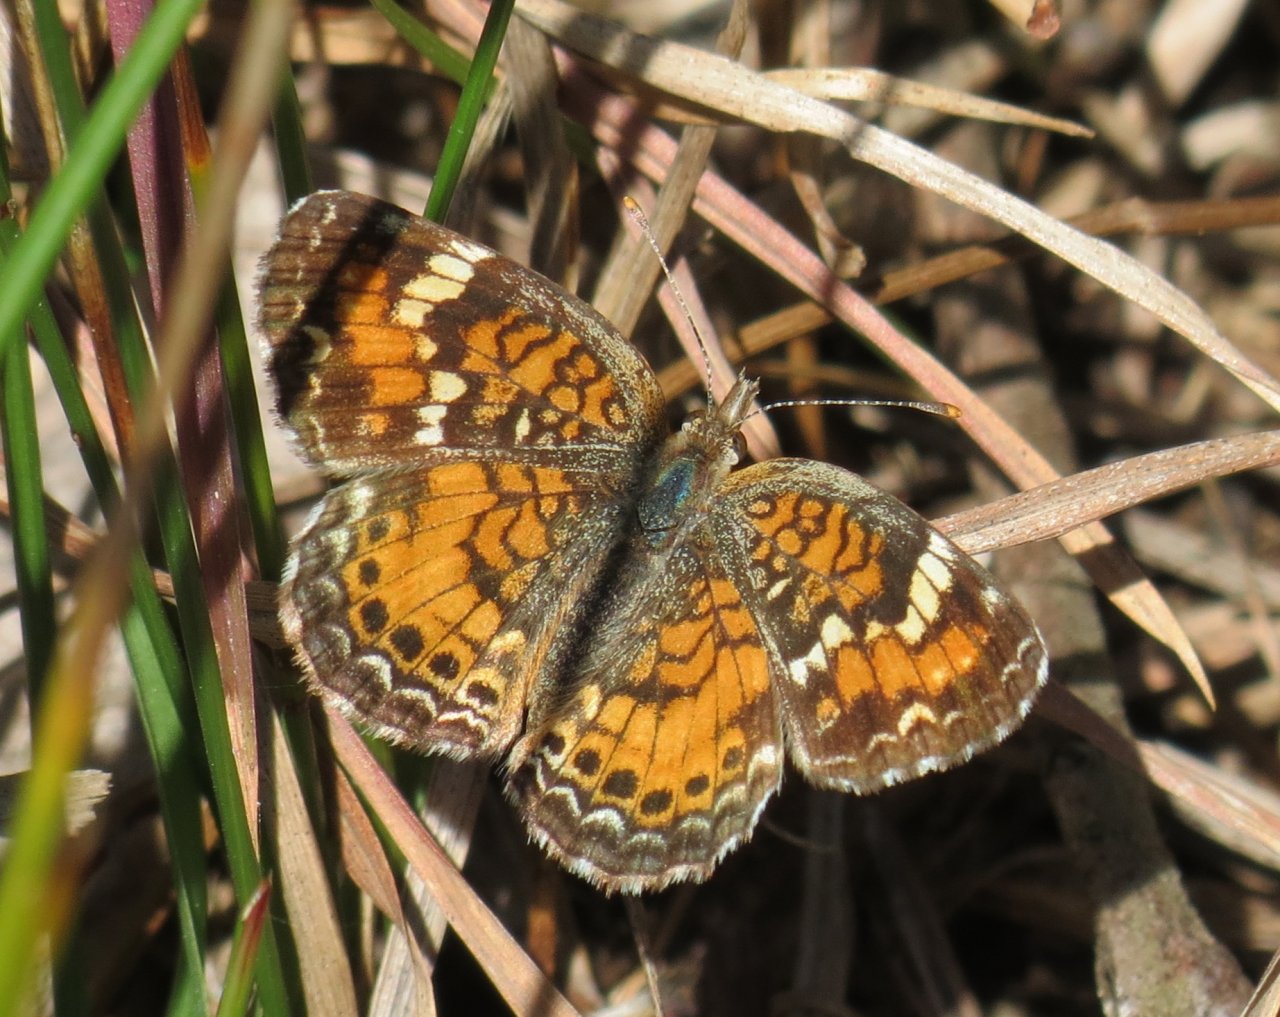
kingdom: Animalia
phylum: Arthropoda
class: Insecta
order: Lepidoptera
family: Nymphalidae
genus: Phyciodes
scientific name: Phyciodes phaon
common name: Phaon Crescent
